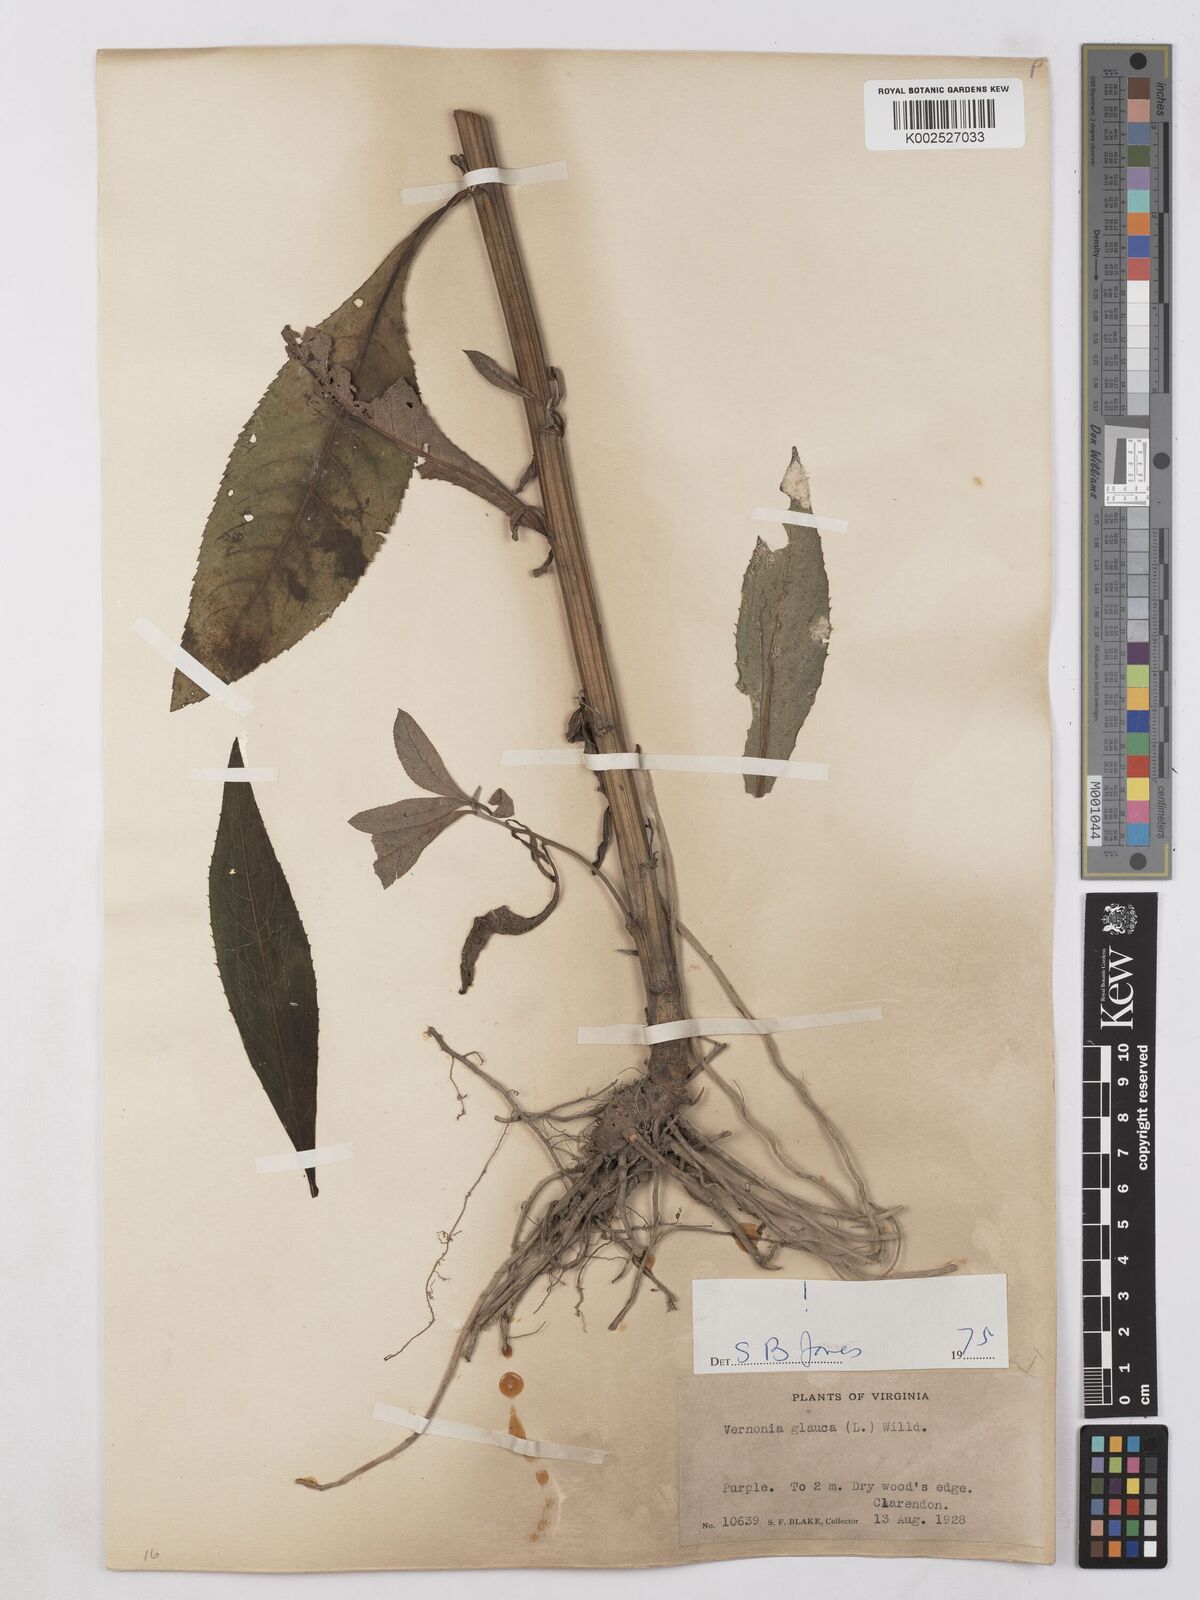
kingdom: Plantae
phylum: Tracheophyta
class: Magnoliopsida
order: Asterales
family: Asteraceae
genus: Vernonia
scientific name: Vernonia glauca
